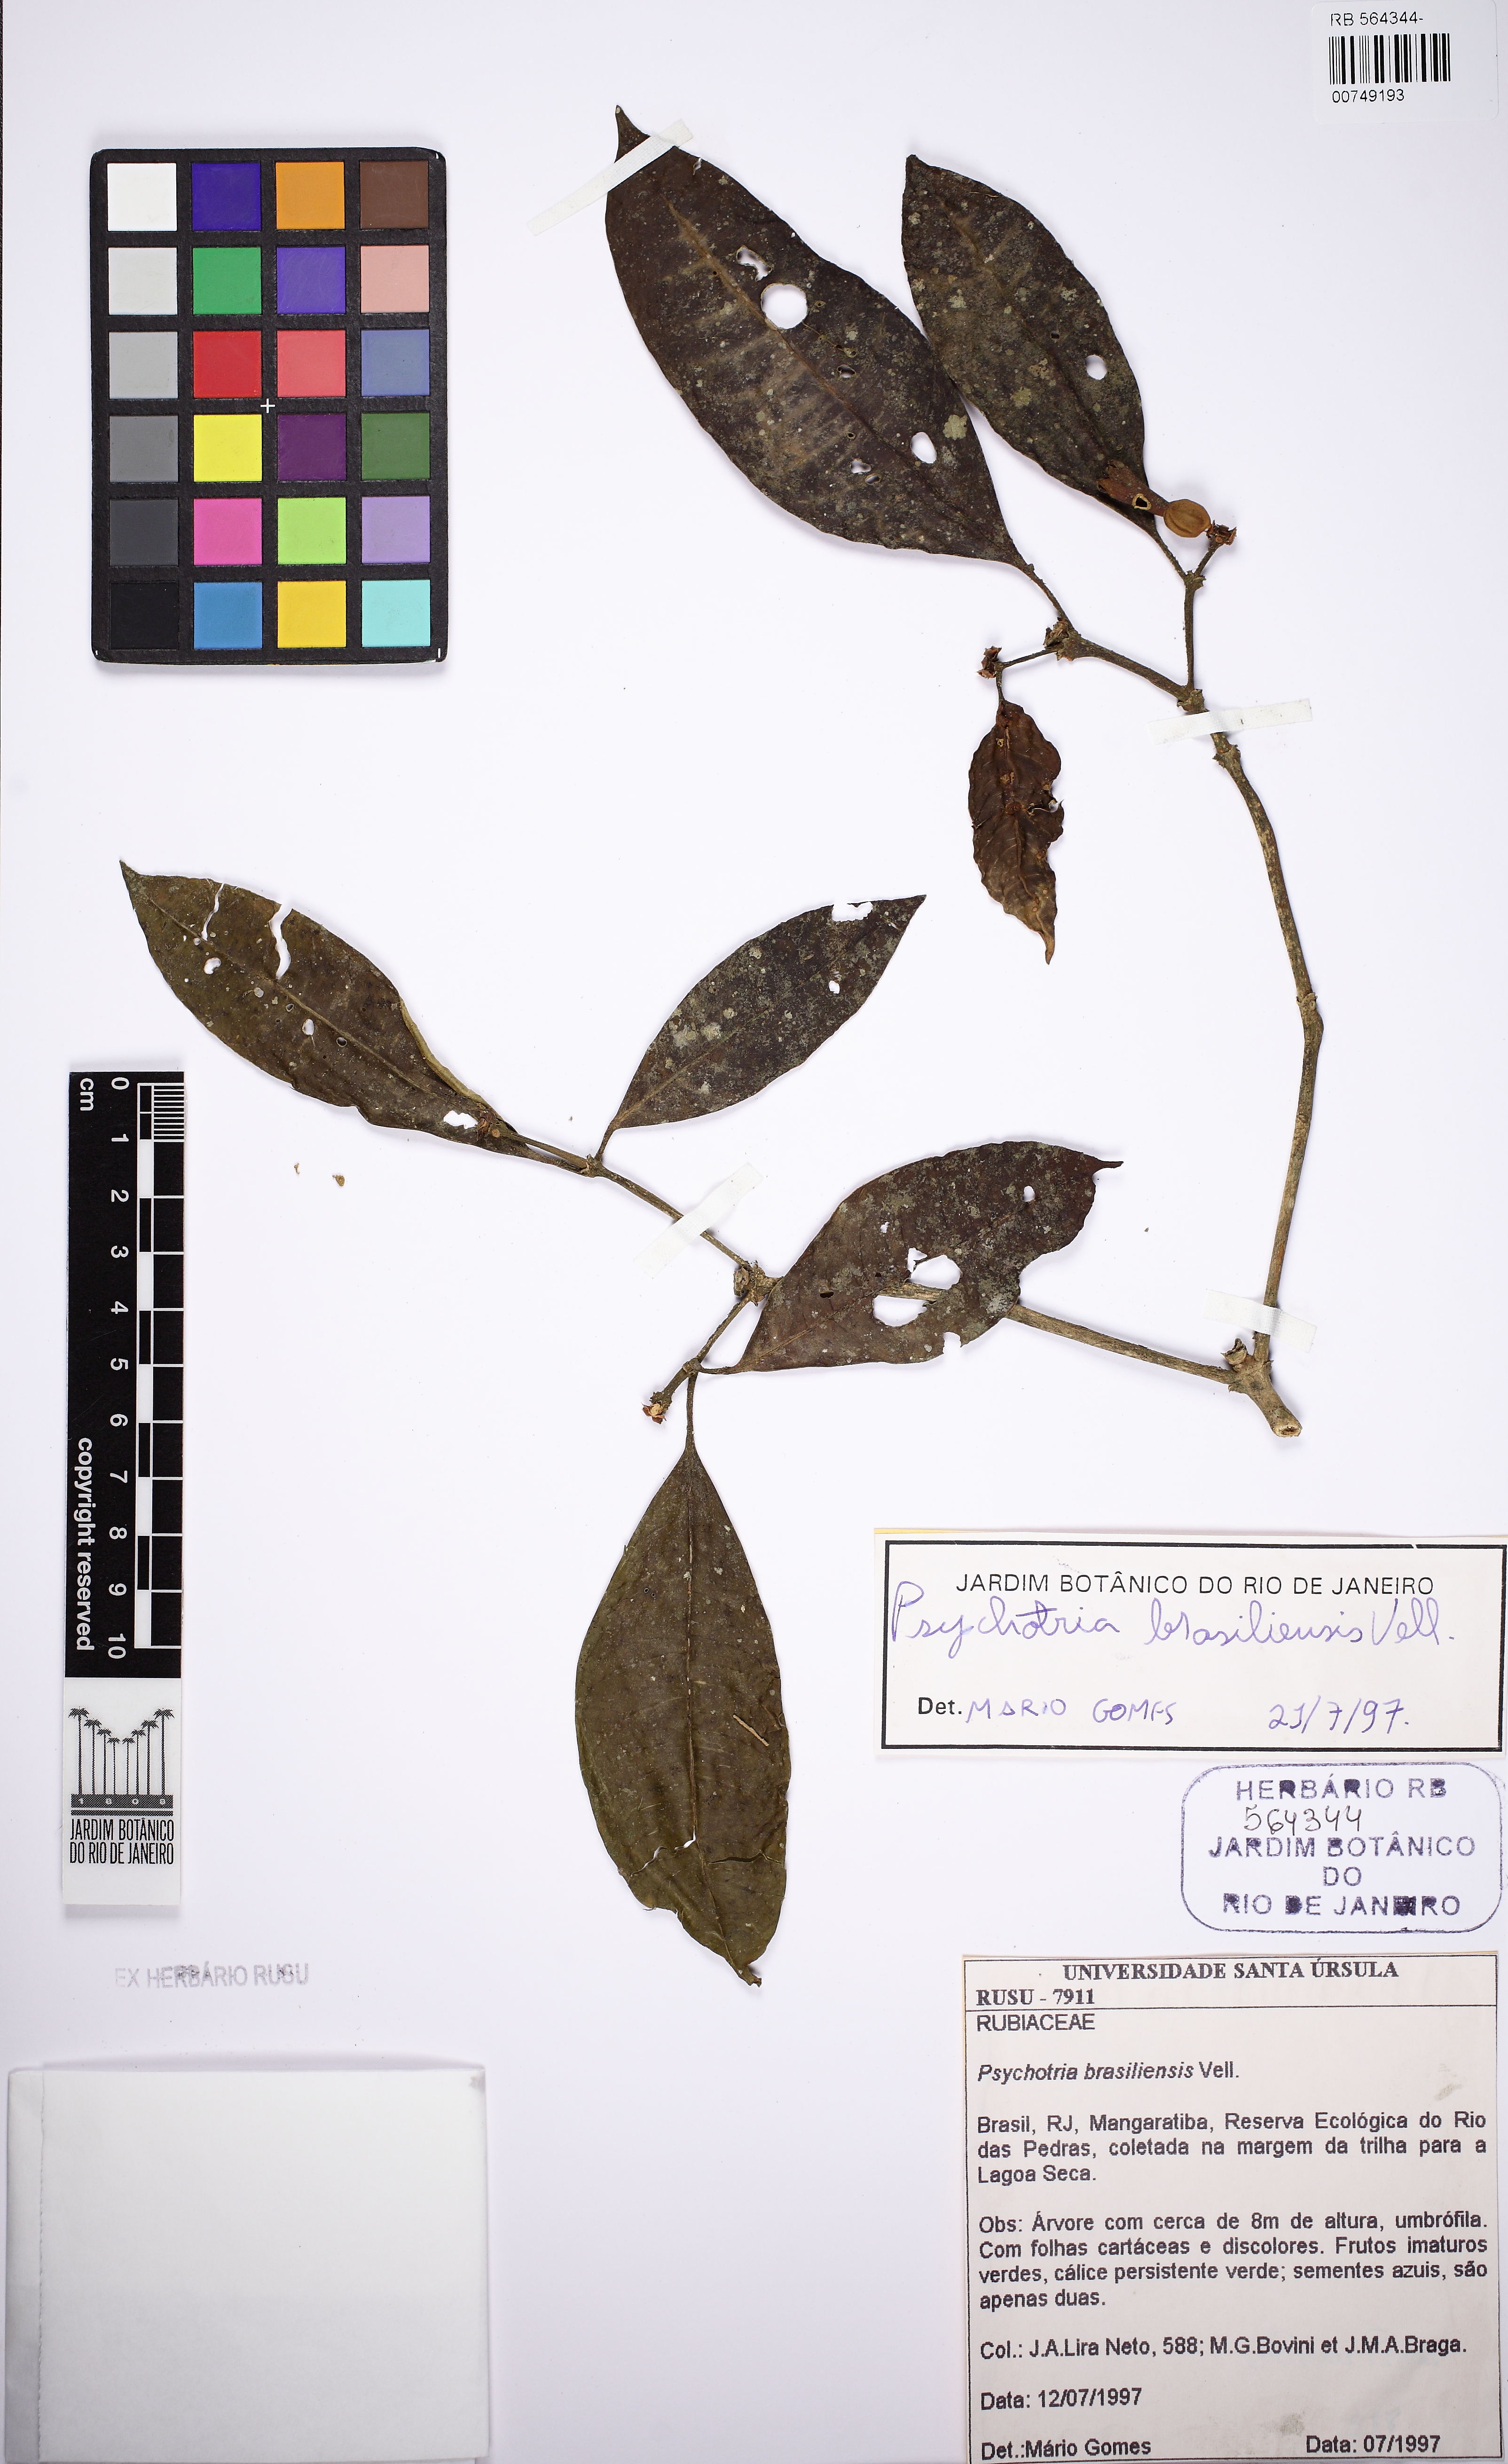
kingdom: Plantae
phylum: Tracheophyta
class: Magnoliopsida
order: Gentianales
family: Rubiaceae
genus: Psychotria
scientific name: Psychotria nuda
